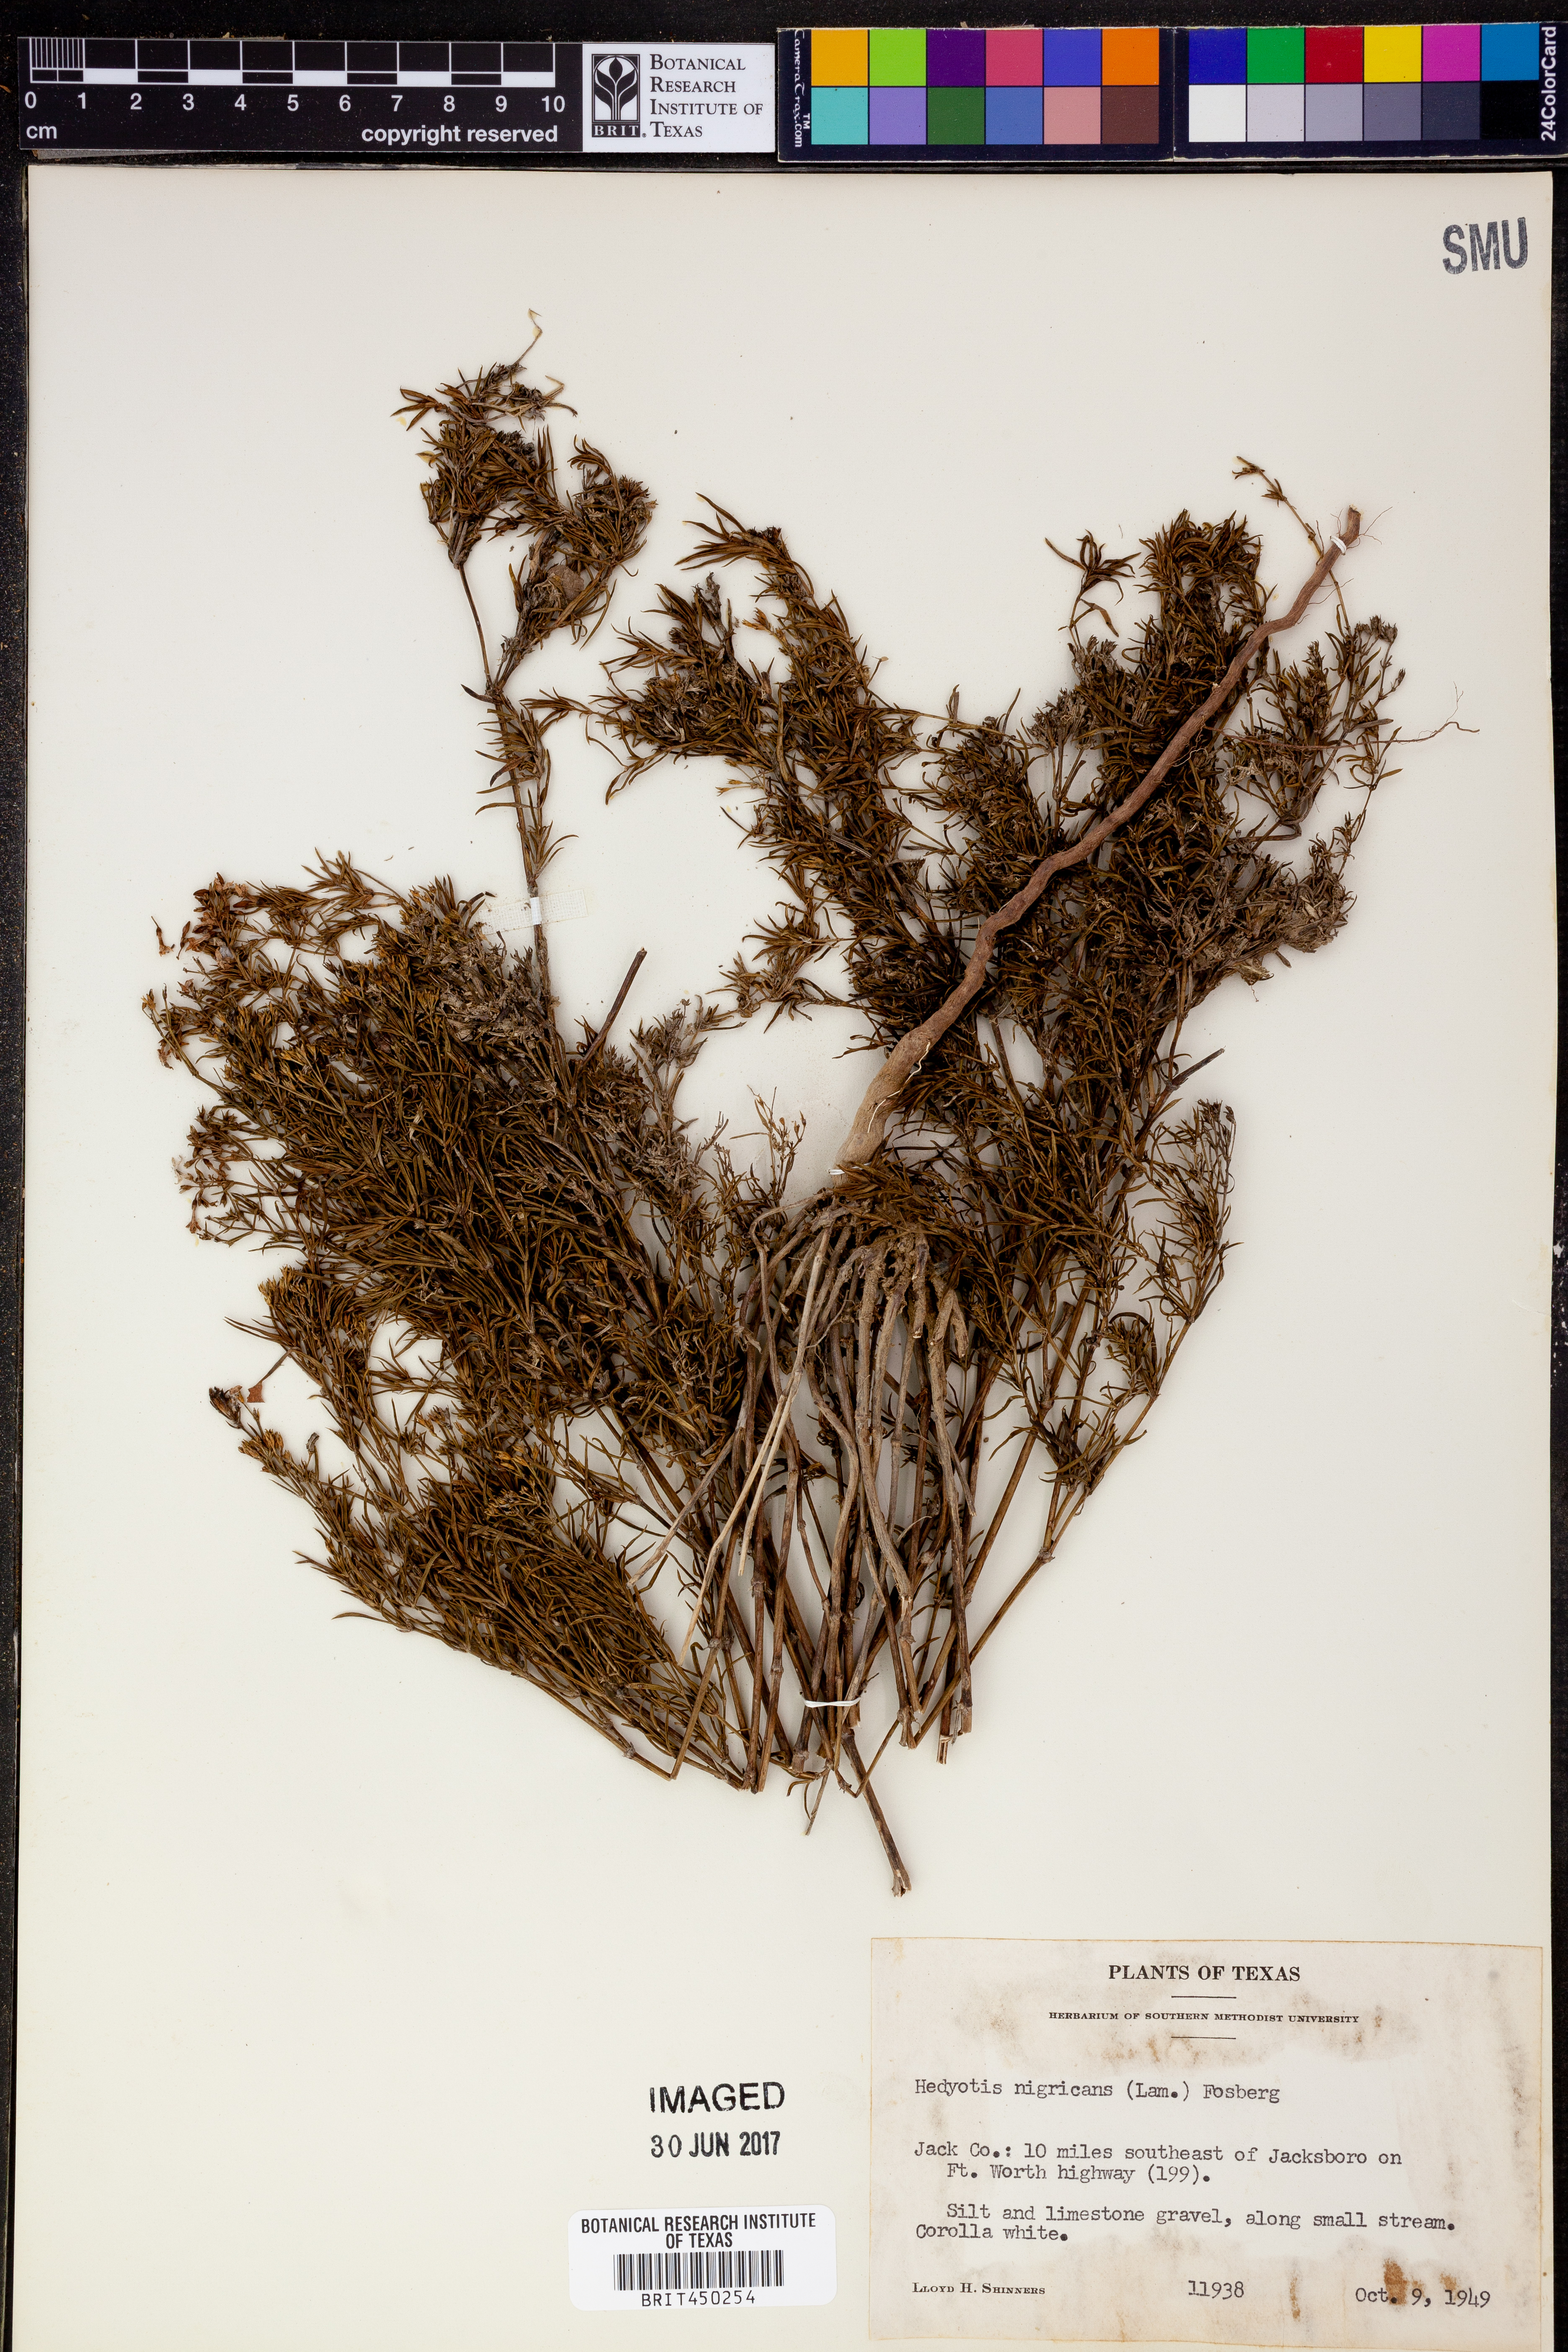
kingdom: Plantae
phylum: Tracheophyta
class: Magnoliopsida
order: Gentianales
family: Rubiaceae
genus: Stenaria
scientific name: Stenaria nigricans
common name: Diamondflowers
